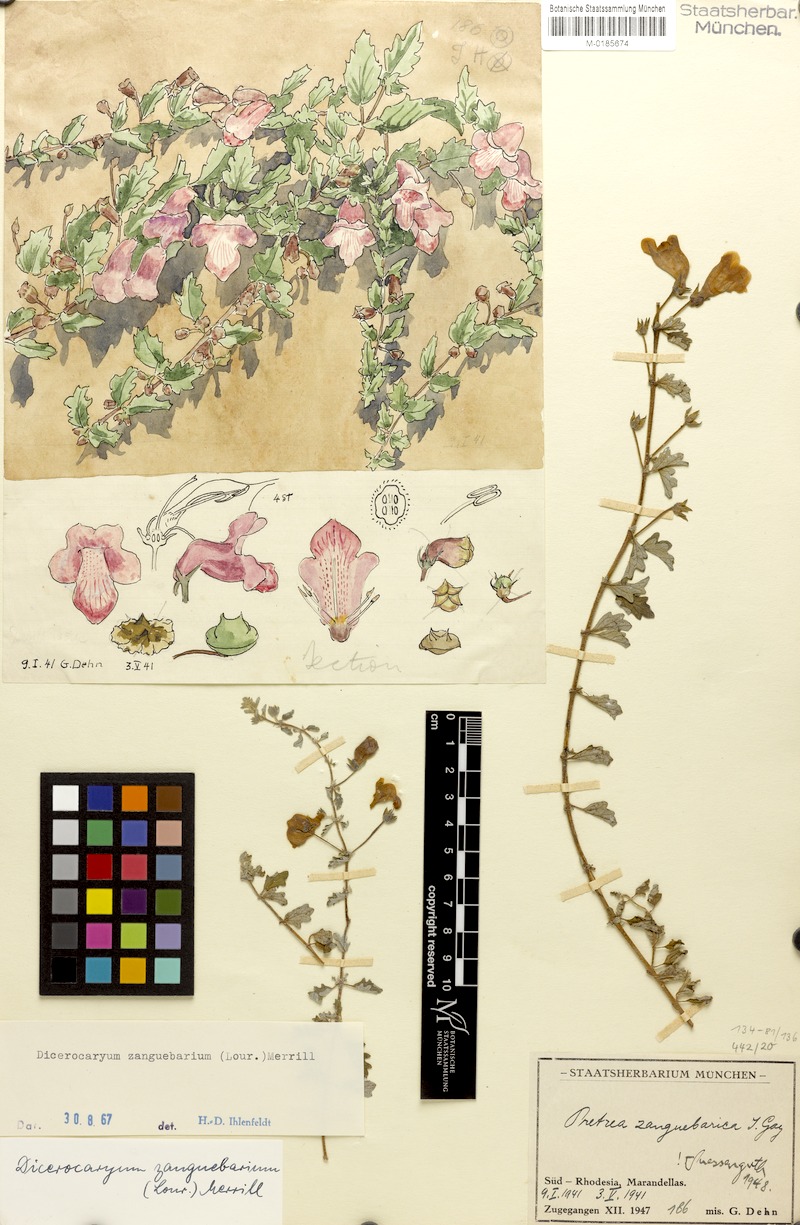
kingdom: Plantae
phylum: Tracheophyta
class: Magnoliopsida
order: Lamiales
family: Pedaliaceae
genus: Dicerocaryum
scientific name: Dicerocaryum zanguebarium
